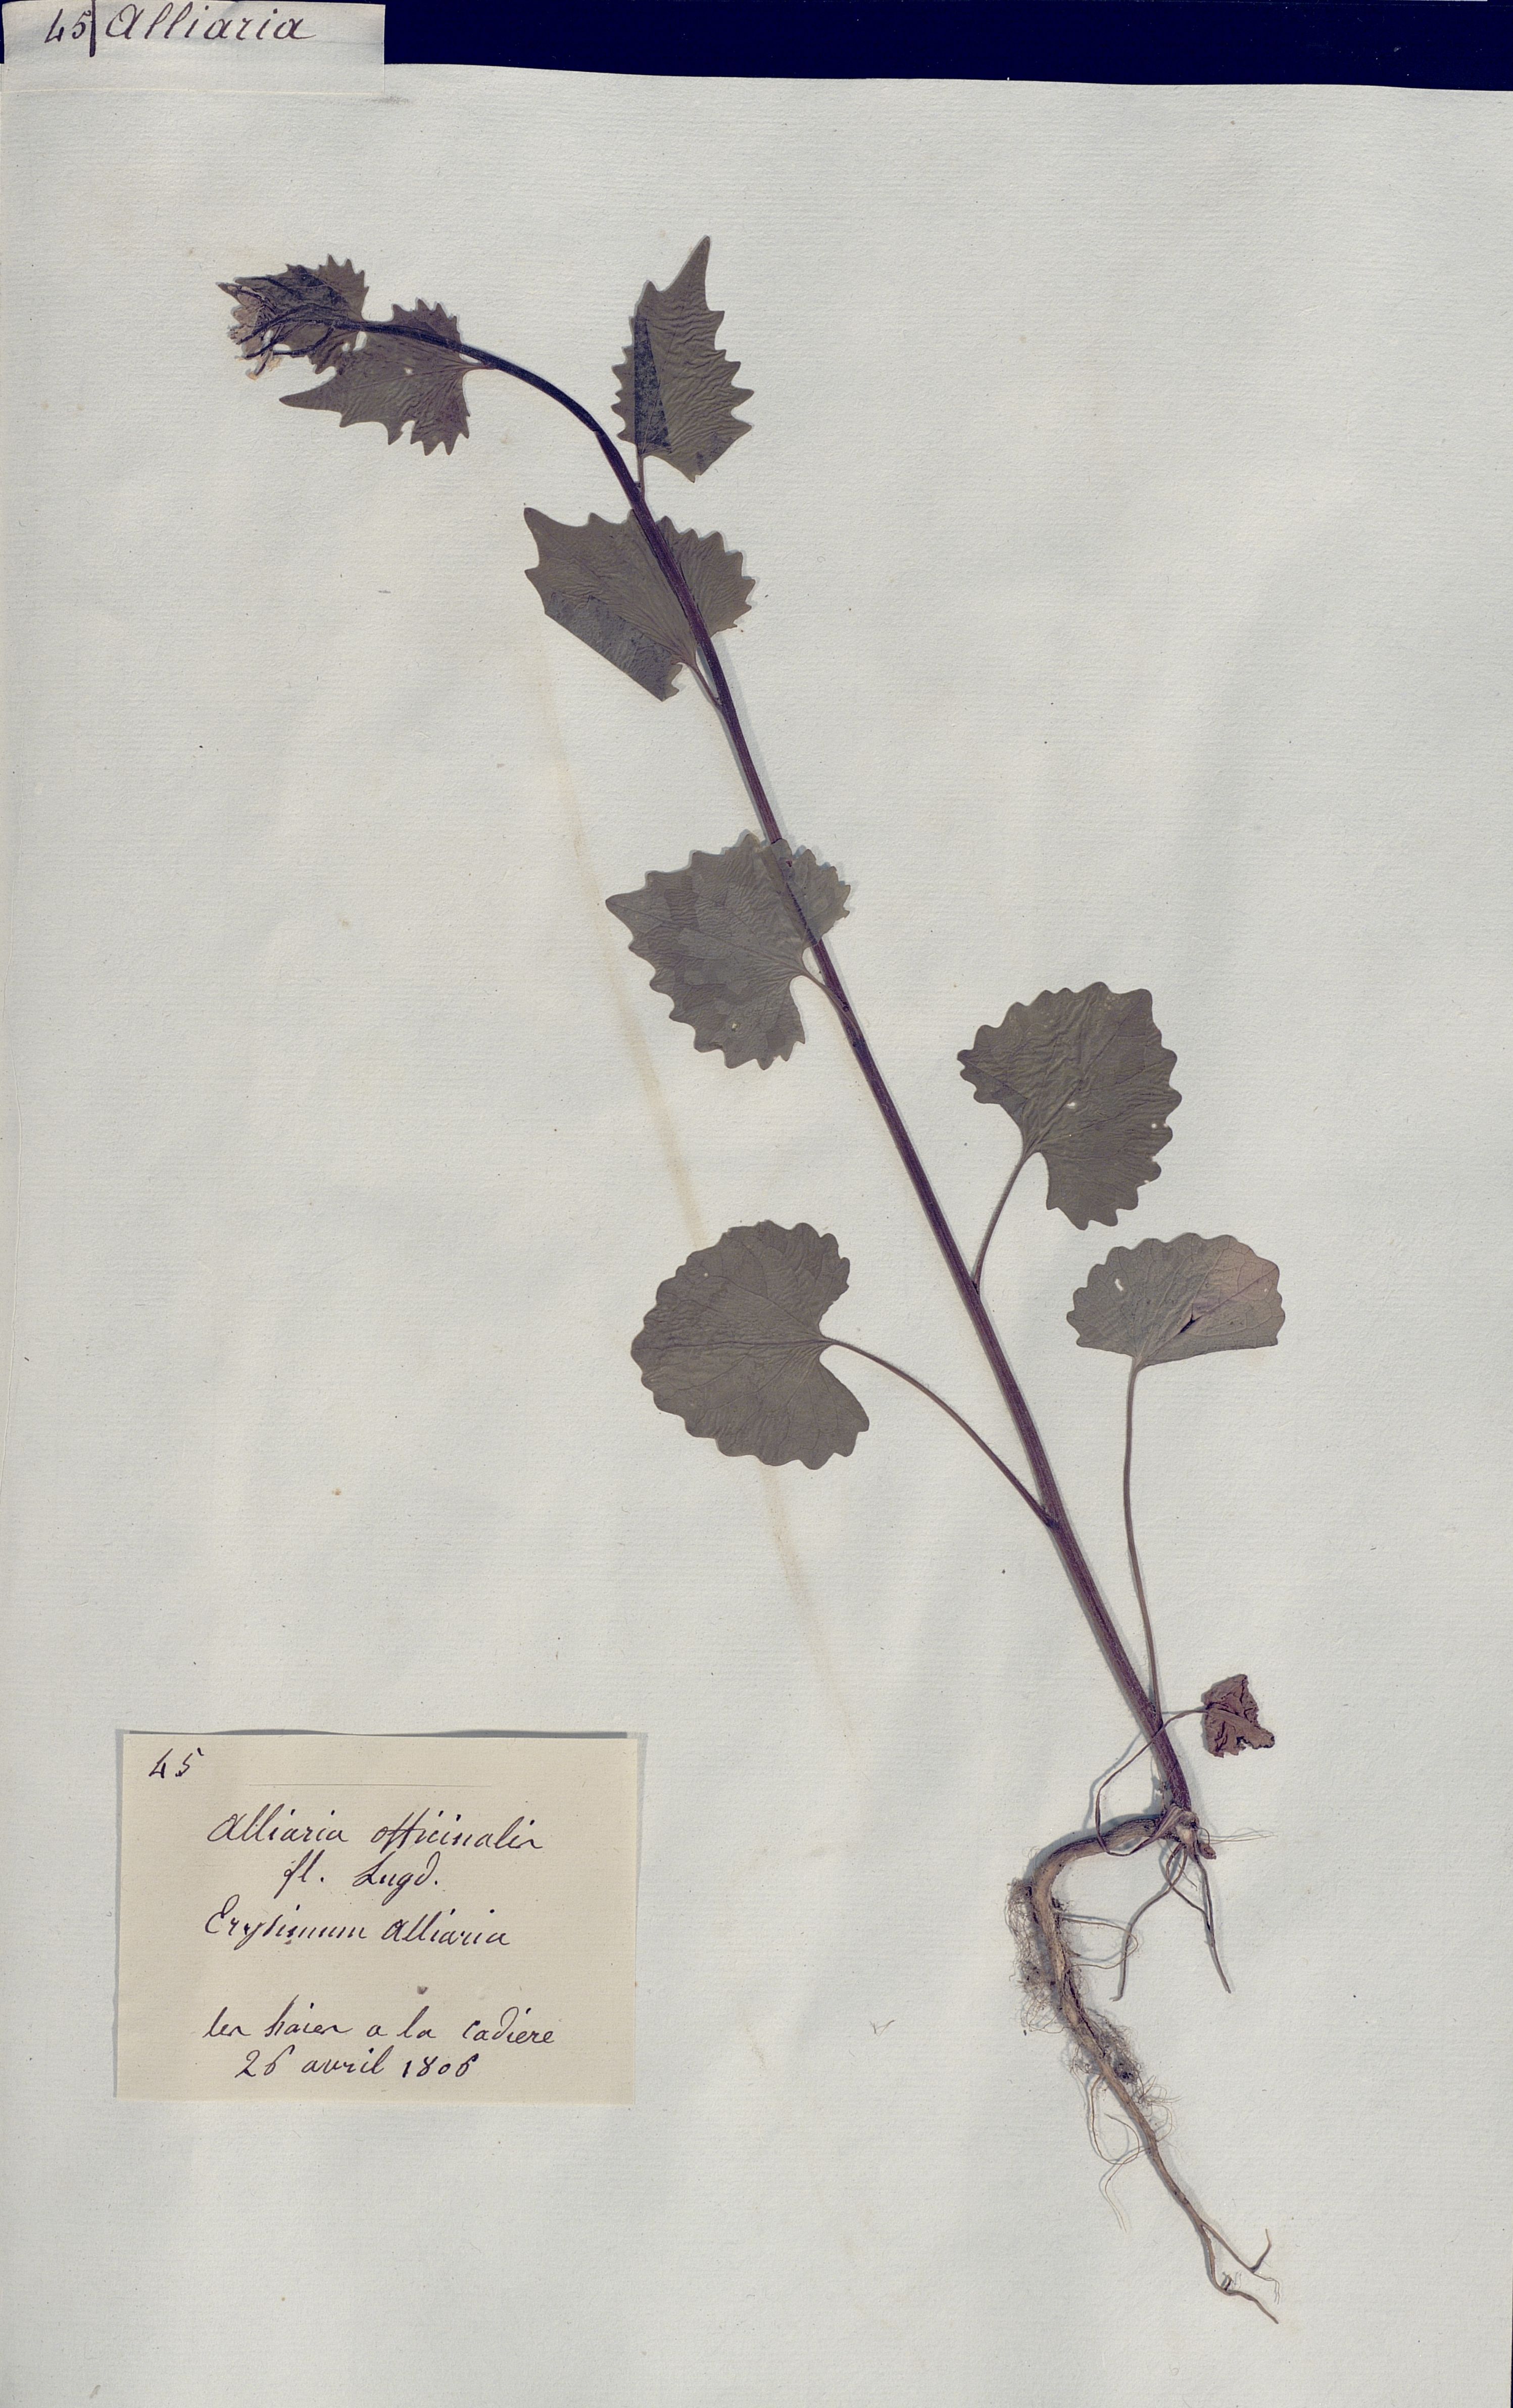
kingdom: Plantae
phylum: Tracheophyta
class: Magnoliopsida
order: Brassicales
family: Brassicaceae
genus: Alliaria
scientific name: Alliaria petiolata
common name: Garlic mustard
